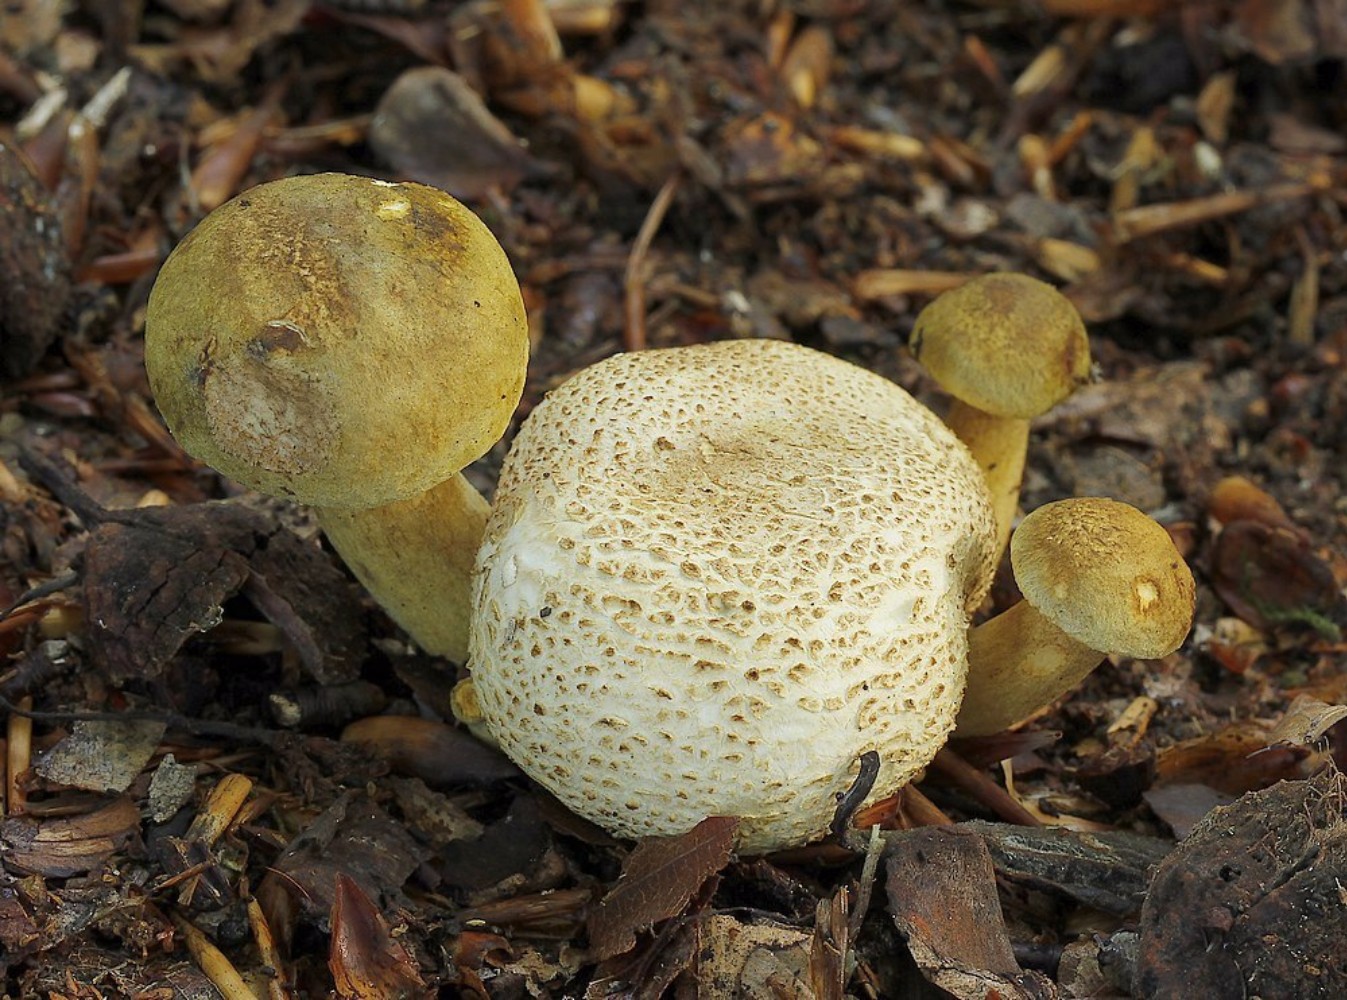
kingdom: Fungi
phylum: Basidiomycota
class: Agaricomycetes
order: Boletales
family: Boletaceae
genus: Pseudoboletus
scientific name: Pseudoboletus parasiticus
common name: snyltende rørhat
